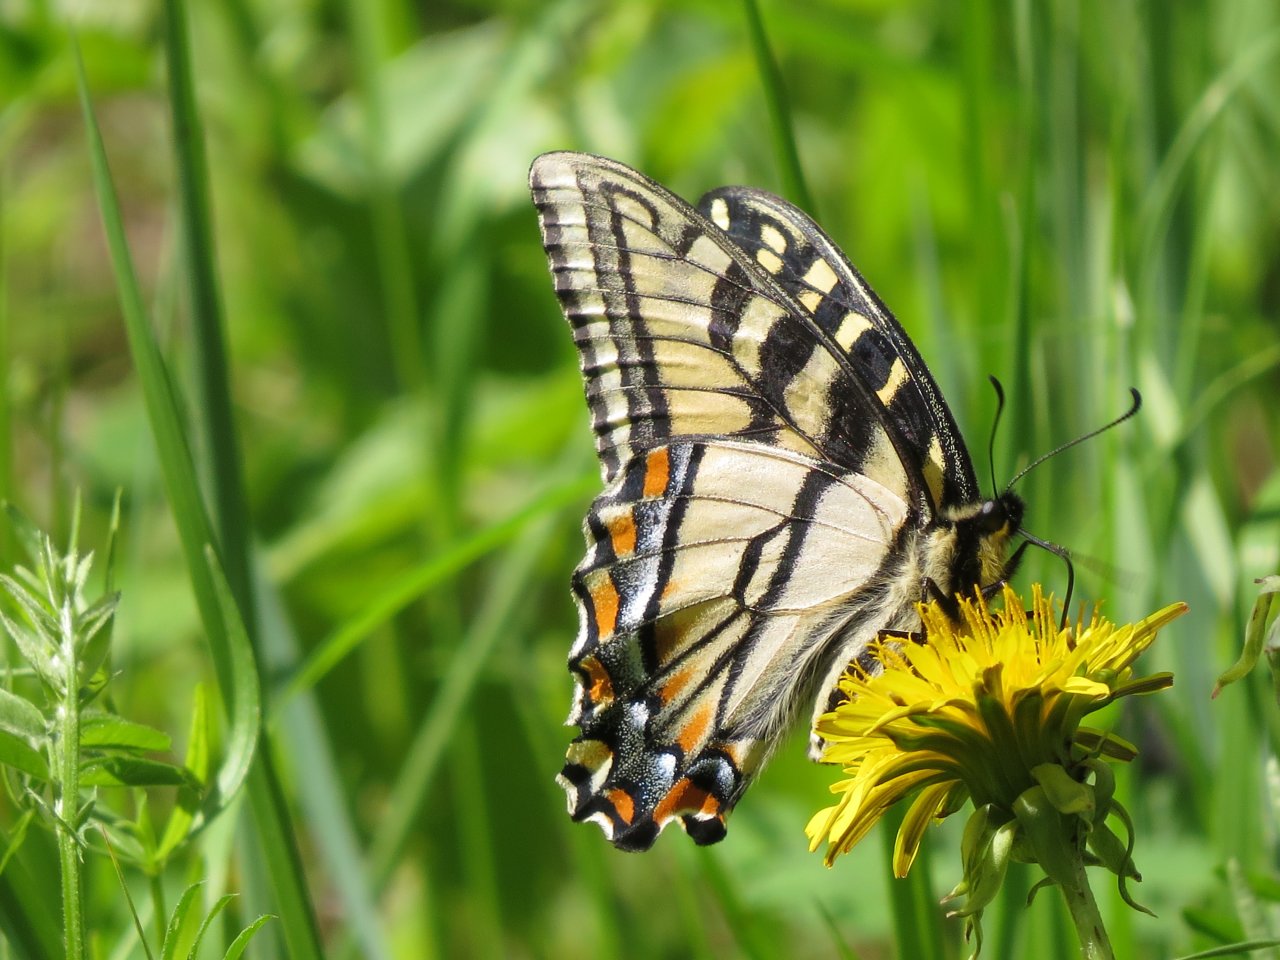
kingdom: Animalia
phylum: Arthropoda
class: Insecta
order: Lepidoptera
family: Papilionidae
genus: Pterourus
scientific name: Pterourus canadensis
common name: Canadian Tiger Swallowtail
